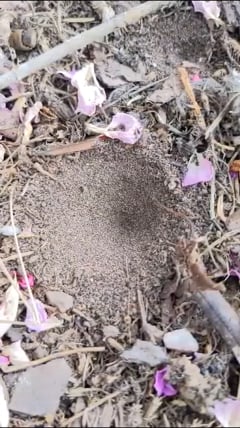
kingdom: Animalia
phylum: Arthropoda
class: Insecta
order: Neuroptera
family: Myrmeleontidae
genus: Myrmeleon
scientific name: Myrmeleon formicarius
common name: Ant-lion
